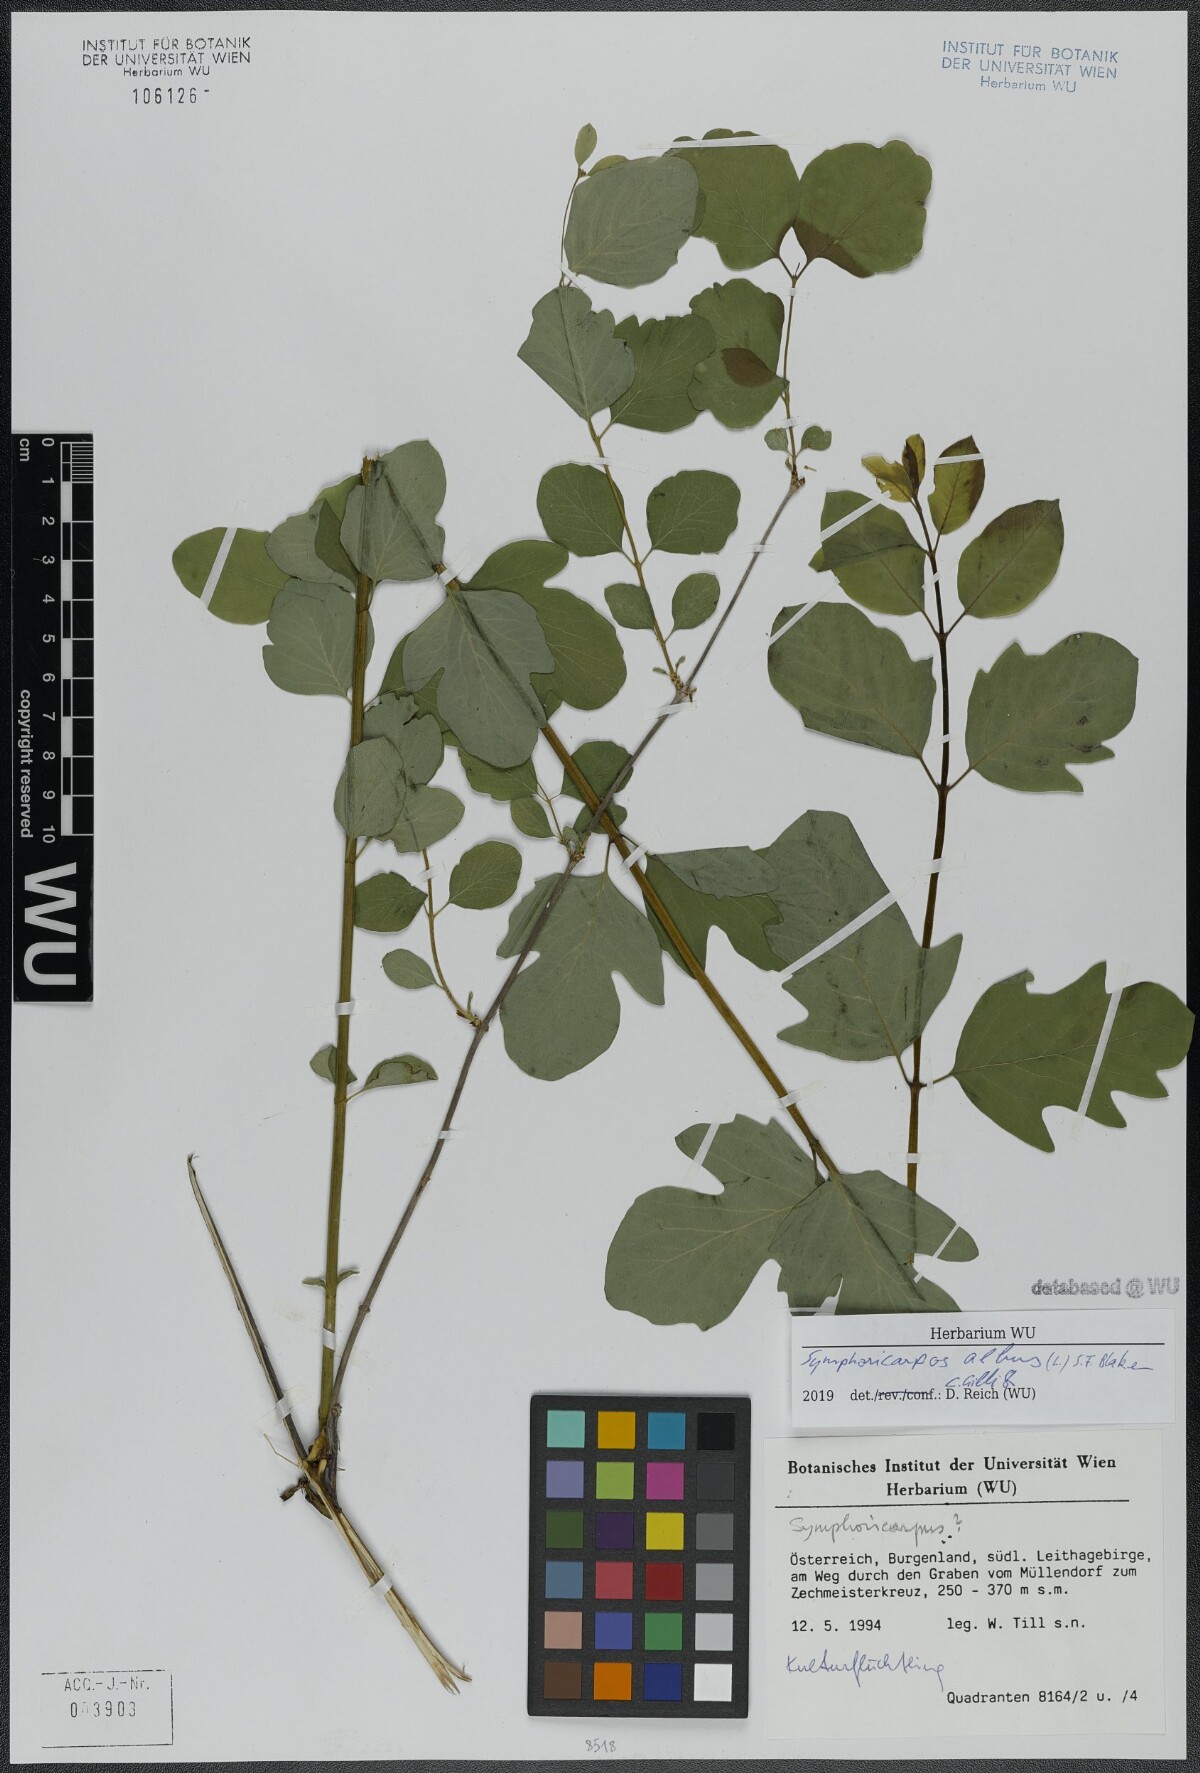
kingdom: Plantae
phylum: Tracheophyta
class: Magnoliopsida
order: Dipsacales
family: Caprifoliaceae
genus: Symphoricarpos
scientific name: Symphoricarpos albus
